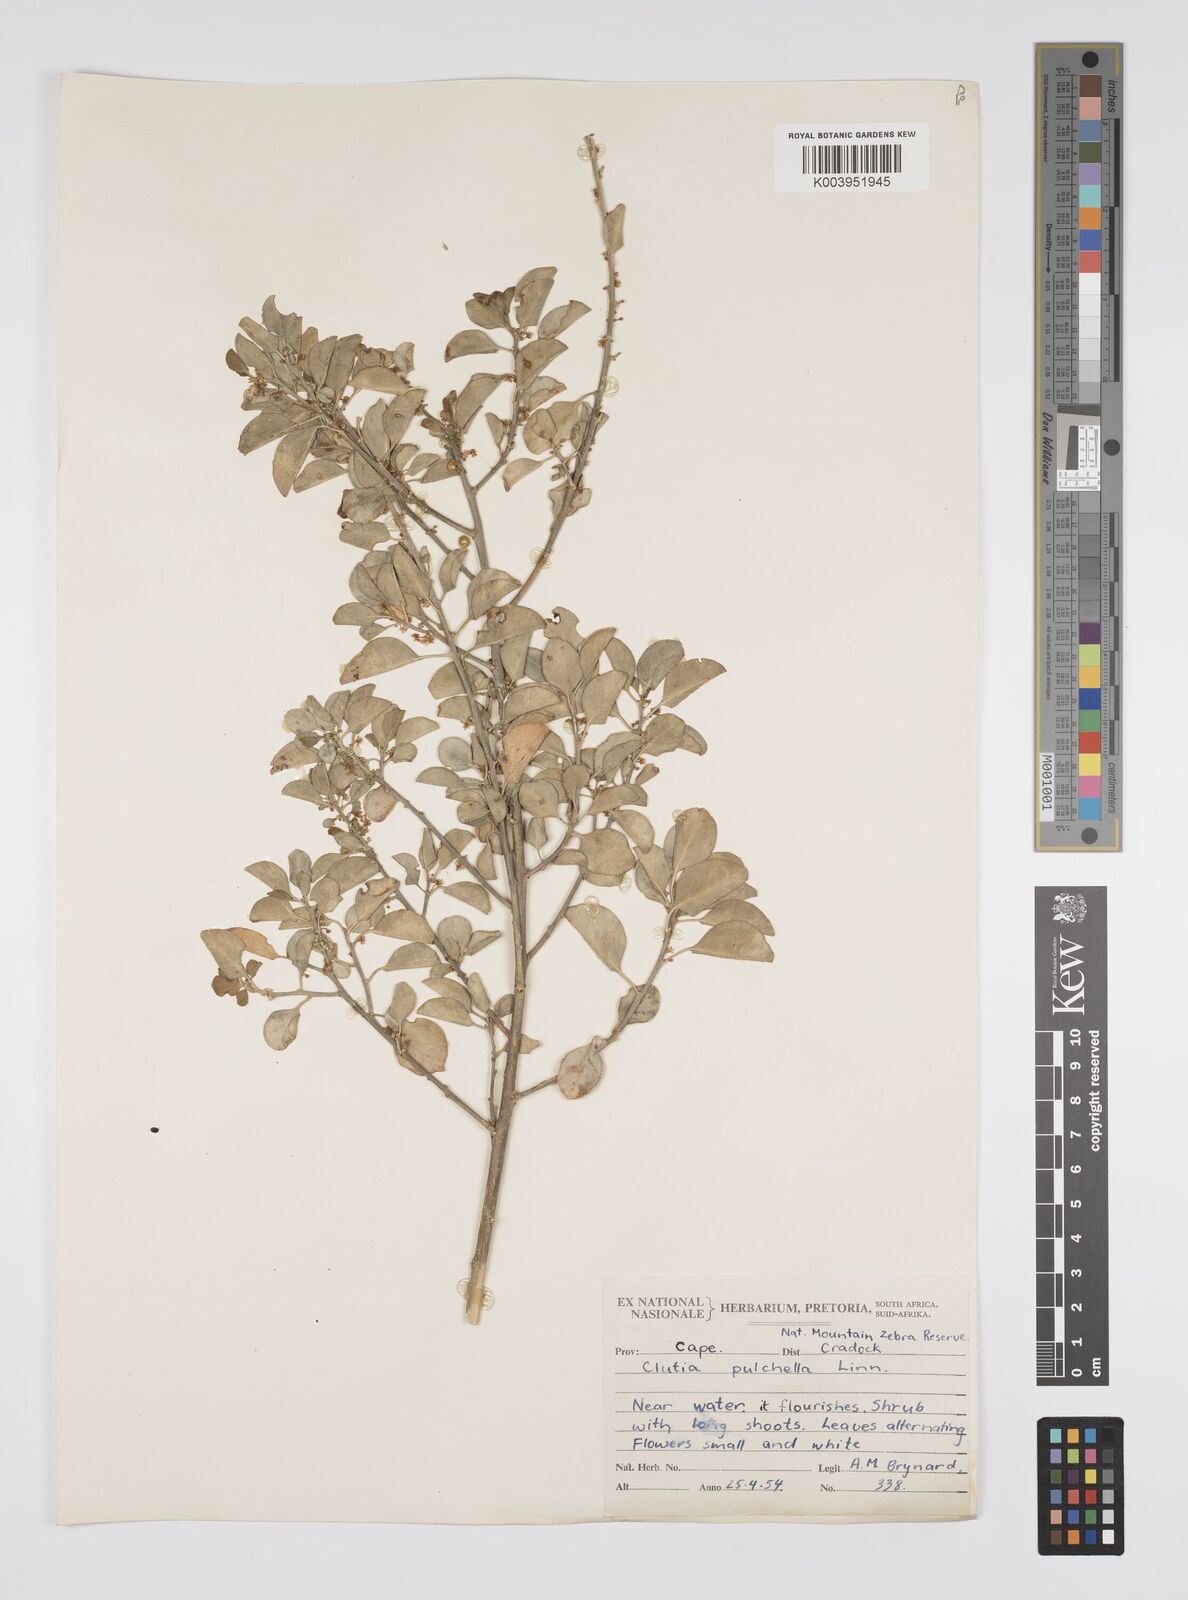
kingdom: Plantae
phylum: Tracheophyta
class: Magnoliopsida
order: Malpighiales
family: Peraceae
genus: Clutia
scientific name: Clutia pulchella
